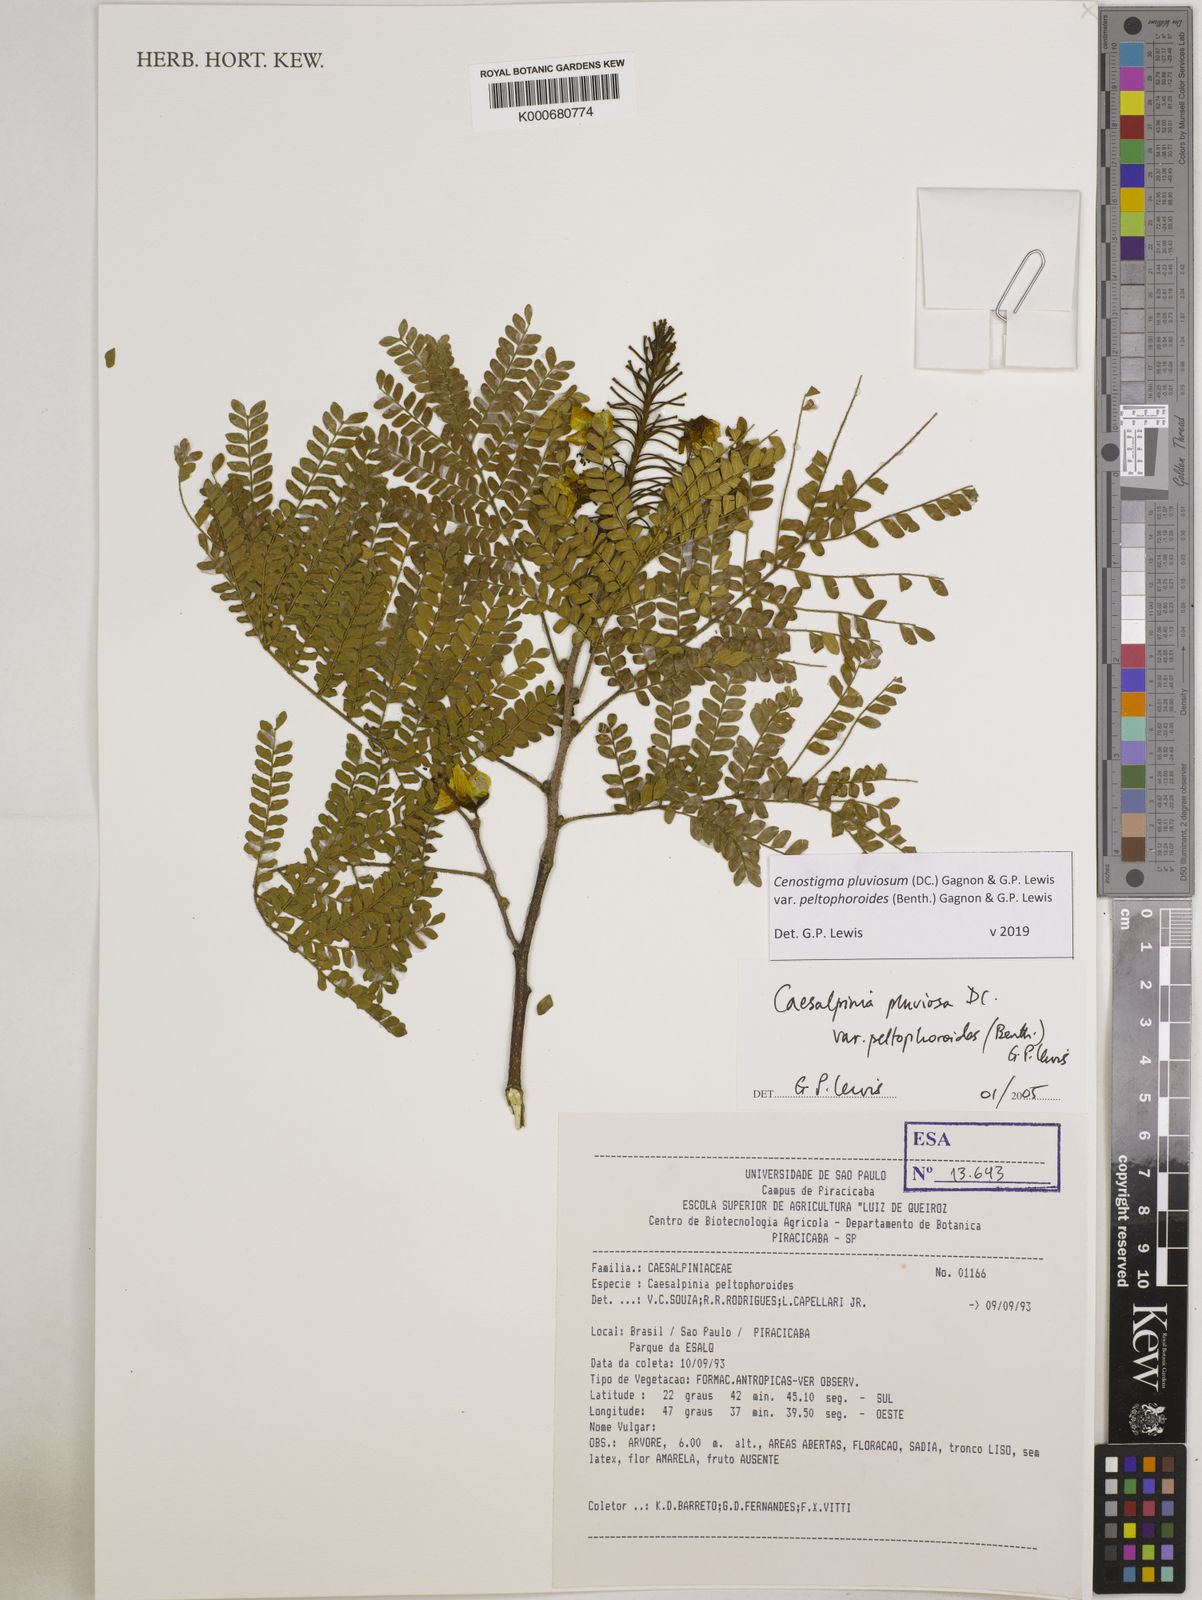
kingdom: Plantae
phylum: Tracheophyta
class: Magnoliopsida
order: Fabales
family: Fabaceae
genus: Cenostigma
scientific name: Cenostigma pluviosum
